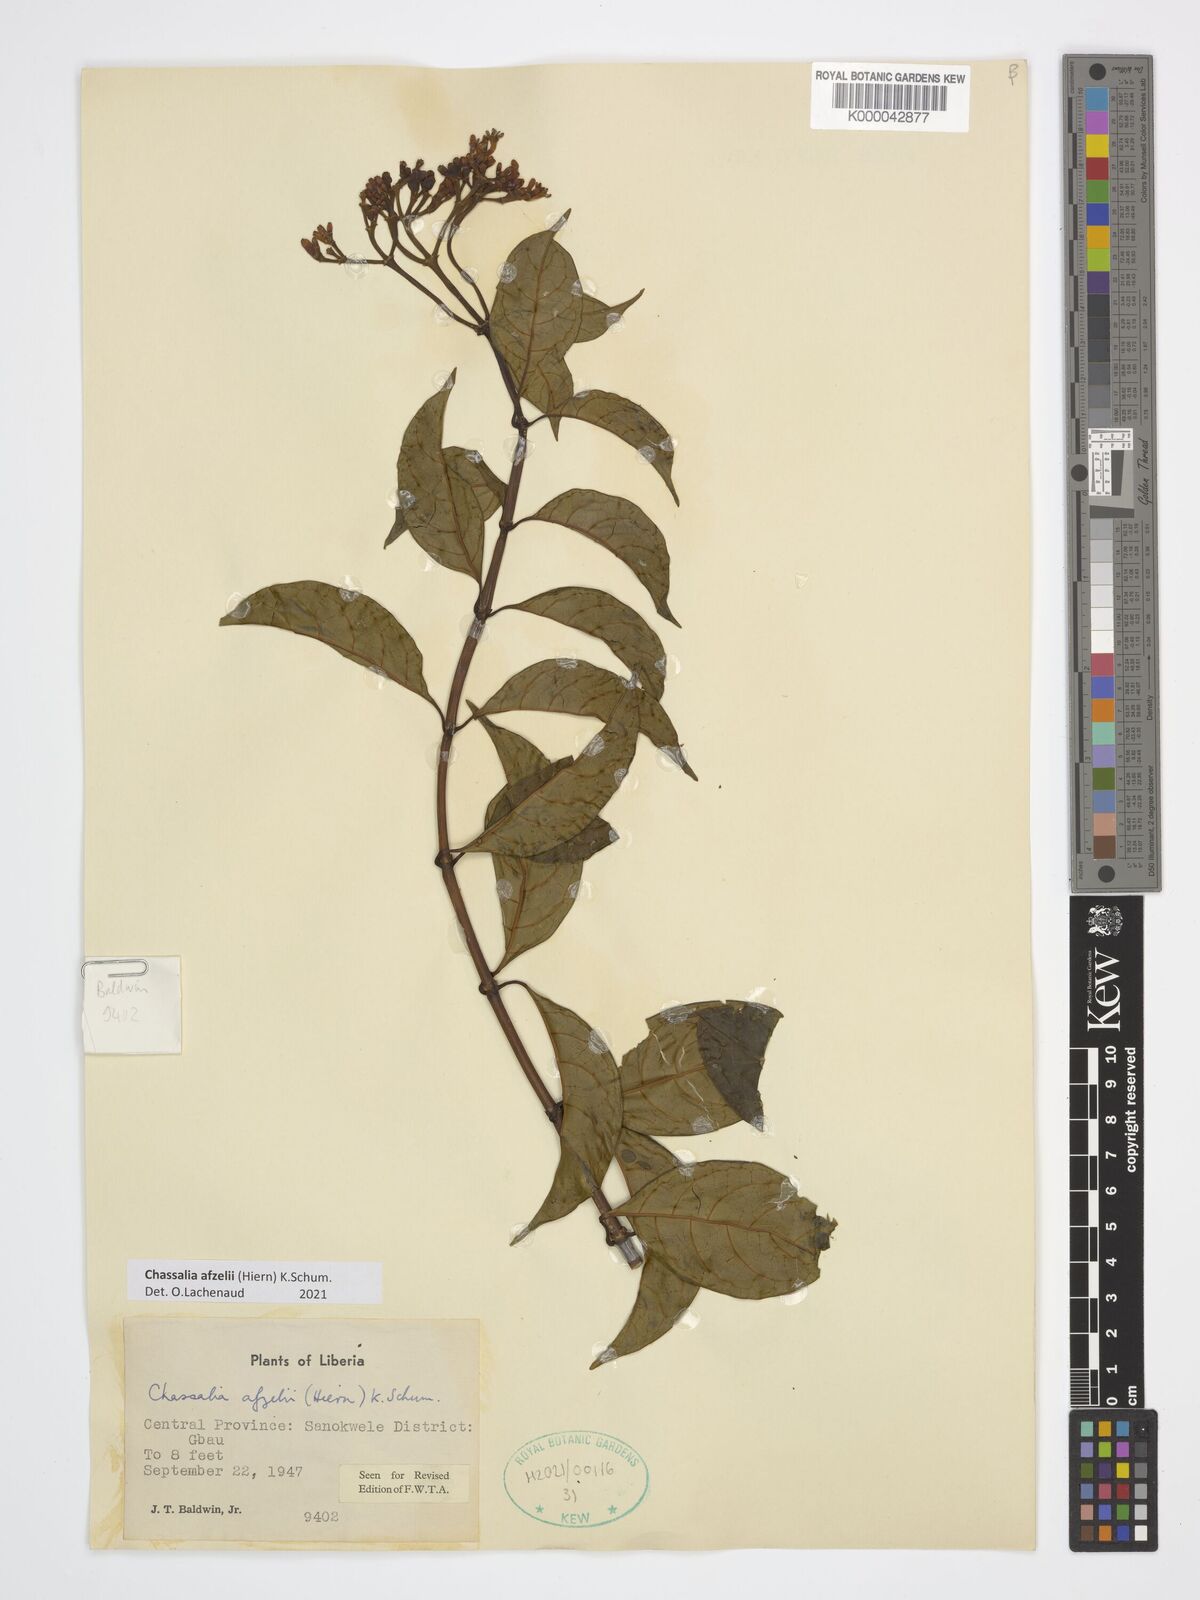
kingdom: Plantae
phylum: Tracheophyta
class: Magnoliopsida
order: Gentianales
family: Rubiaceae
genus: Chassalia
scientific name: Chassalia afzelii
